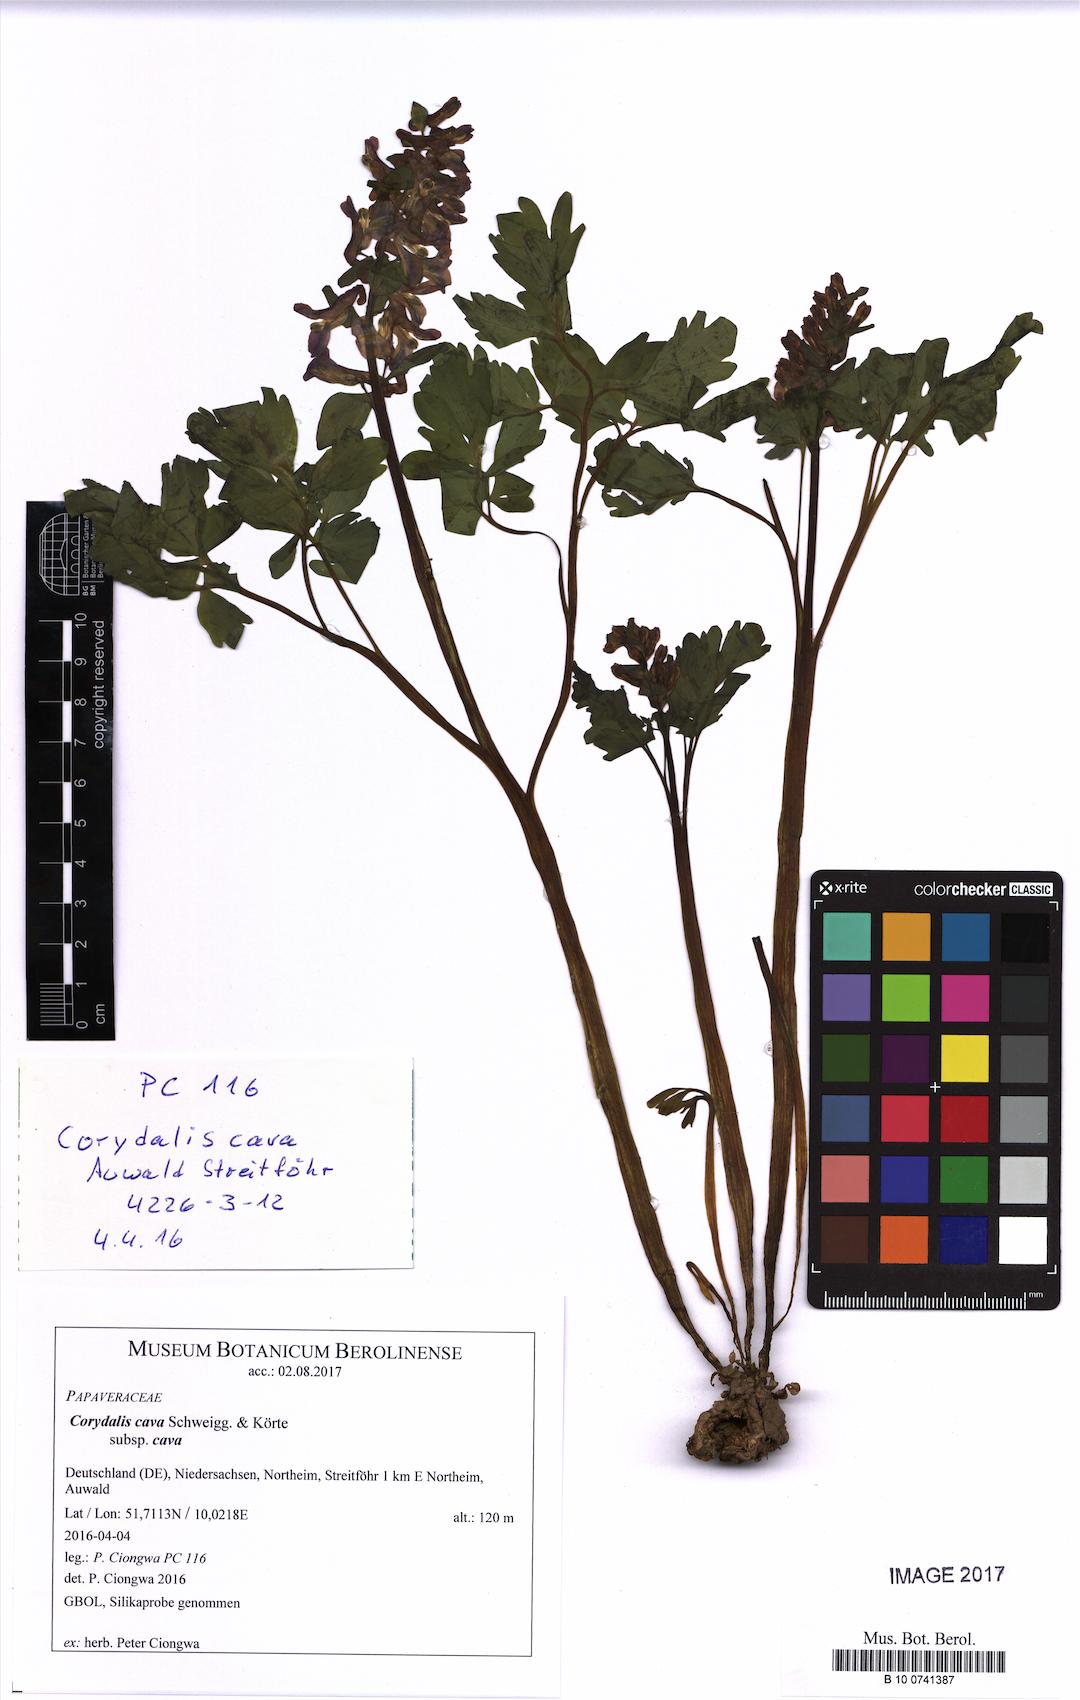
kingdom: Plantae
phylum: Tracheophyta
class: Magnoliopsida
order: Ranunculales
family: Papaveraceae
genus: Corydalis
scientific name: Corydalis cava
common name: Hollowroot
